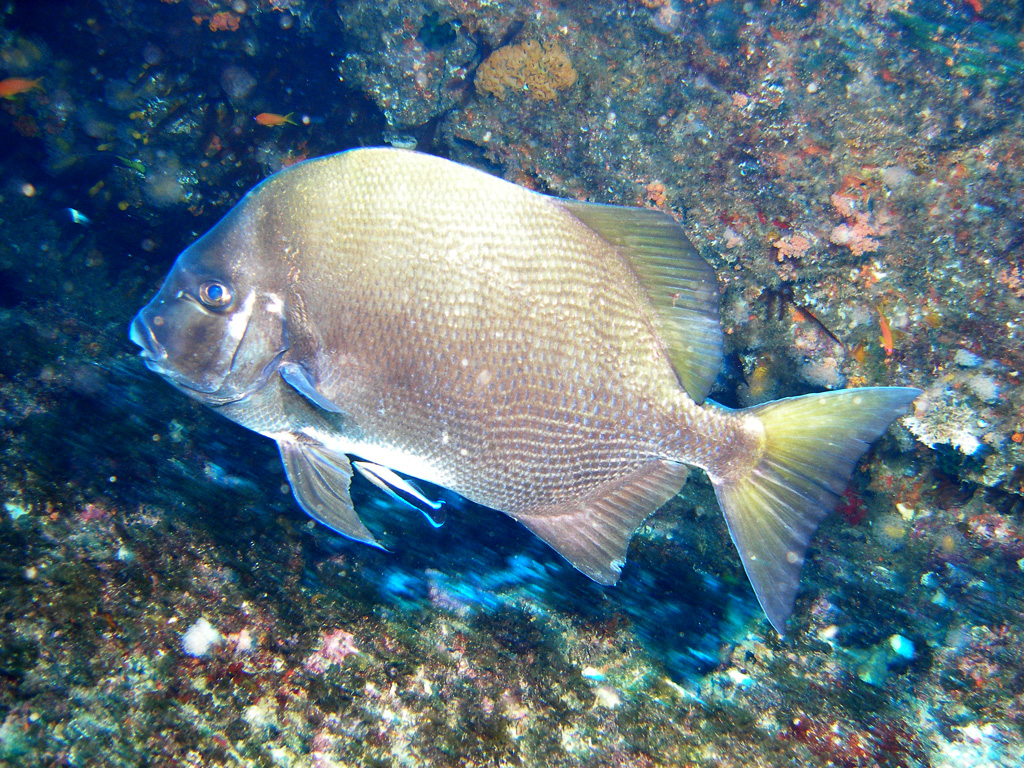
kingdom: Animalia
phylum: Chordata
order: Perciformes
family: Ephippidae
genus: Tripterodon
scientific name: Tripterodon orbis
